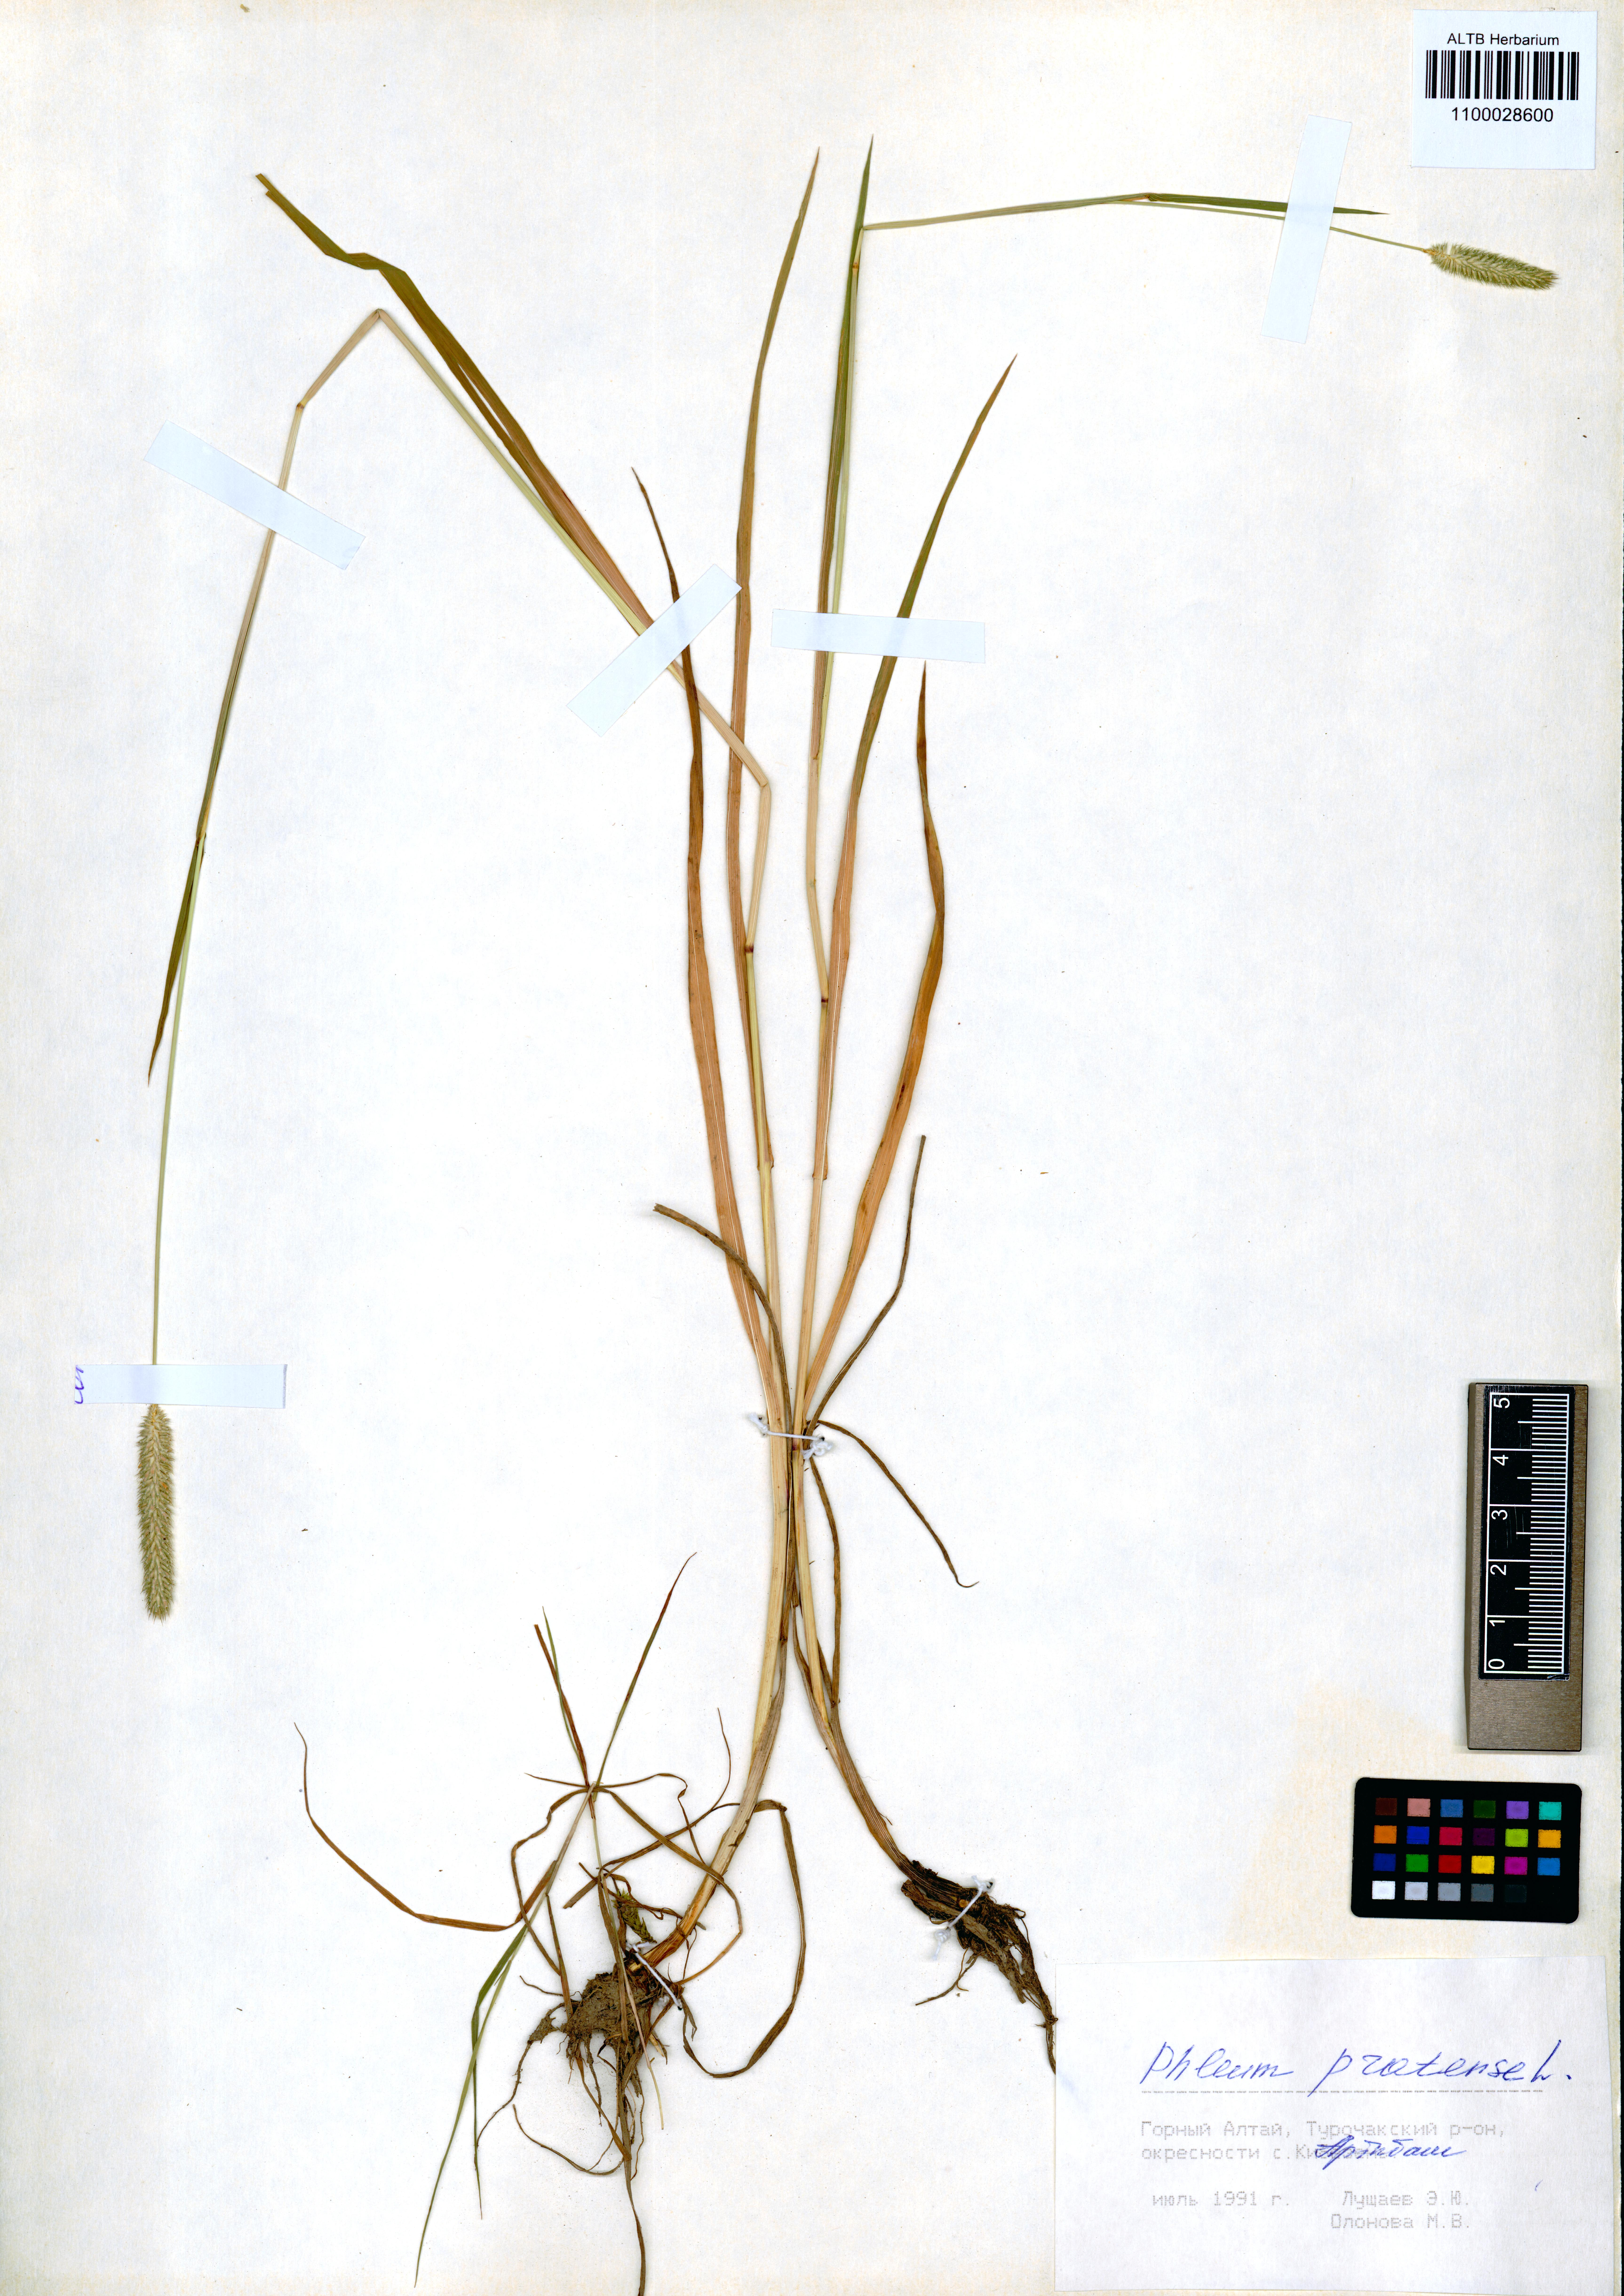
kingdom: Plantae
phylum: Tracheophyta
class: Liliopsida
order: Poales
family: Poaceae
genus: Phleum
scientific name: Phleum pratense
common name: Timothy grass
